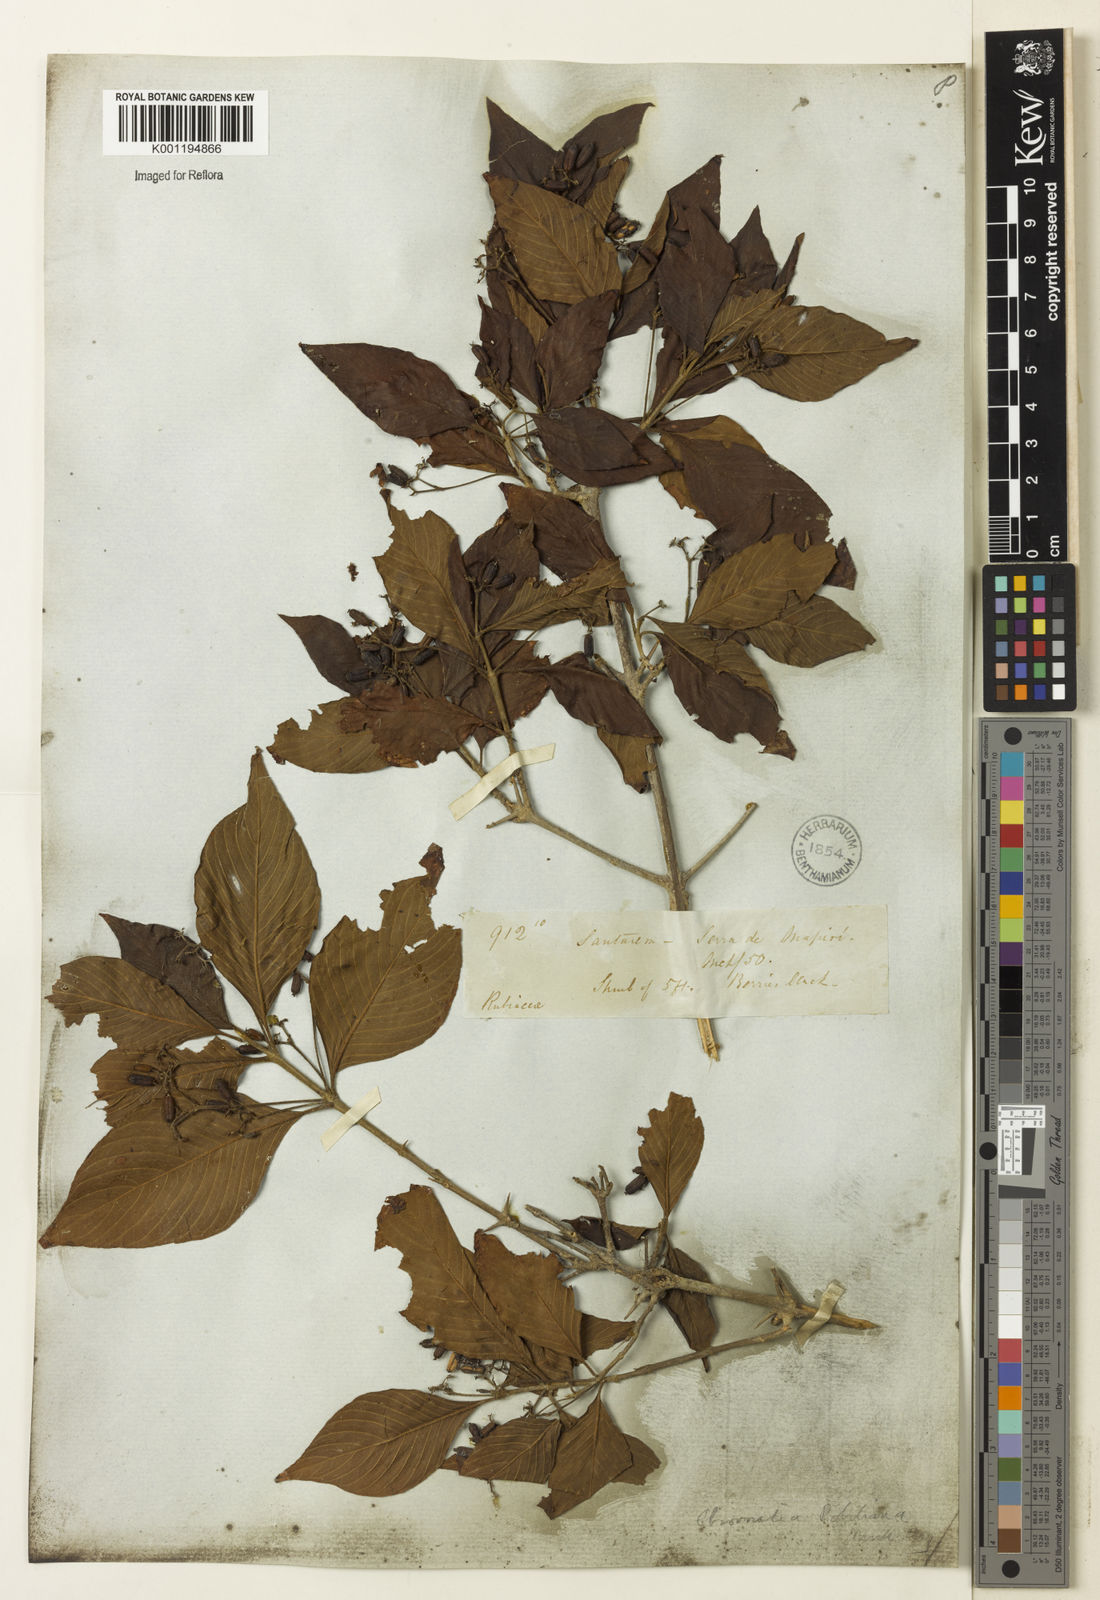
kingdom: Plantae
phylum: Tracheophyta
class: Magnoliopsida
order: Gentianales
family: Rubiaceae
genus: Chomelia
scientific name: Chomelia
